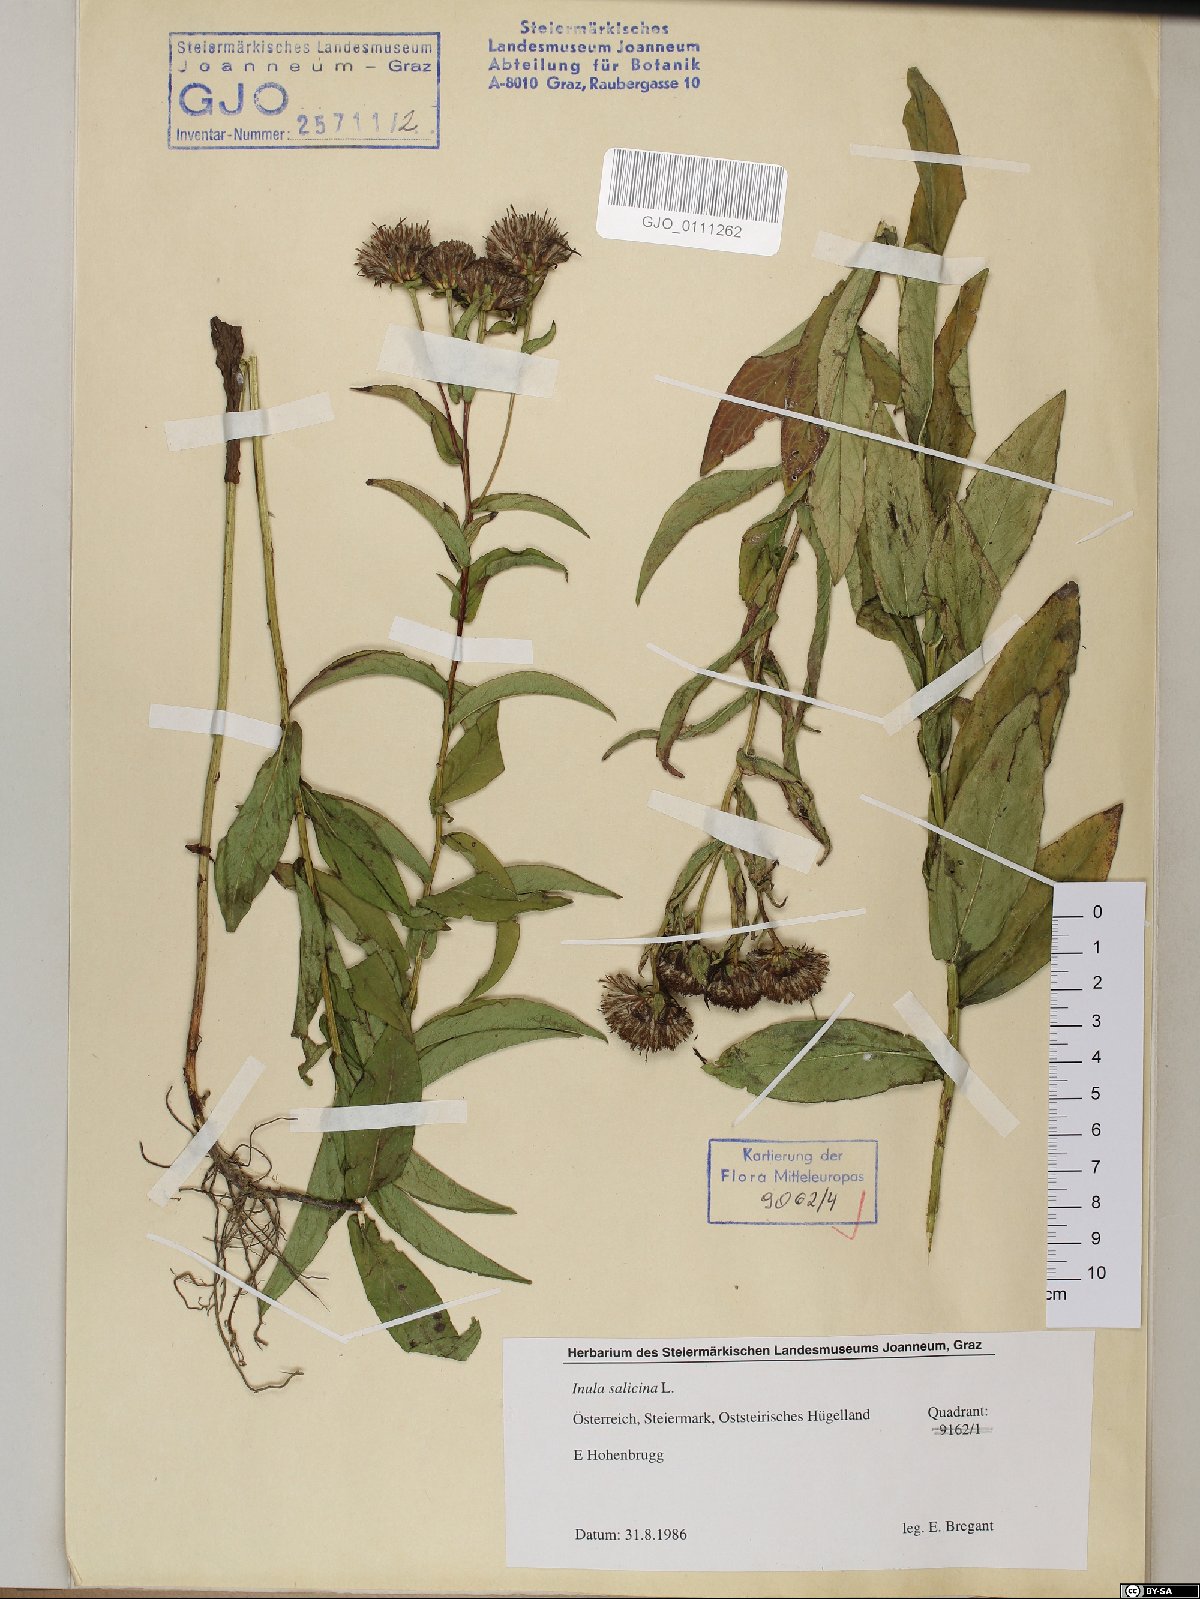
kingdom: Plantae
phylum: Tracheophyta
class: Magnoliopsida
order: Asterales
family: Asteraceae
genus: Pentanema
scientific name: Pentanema salicinum
